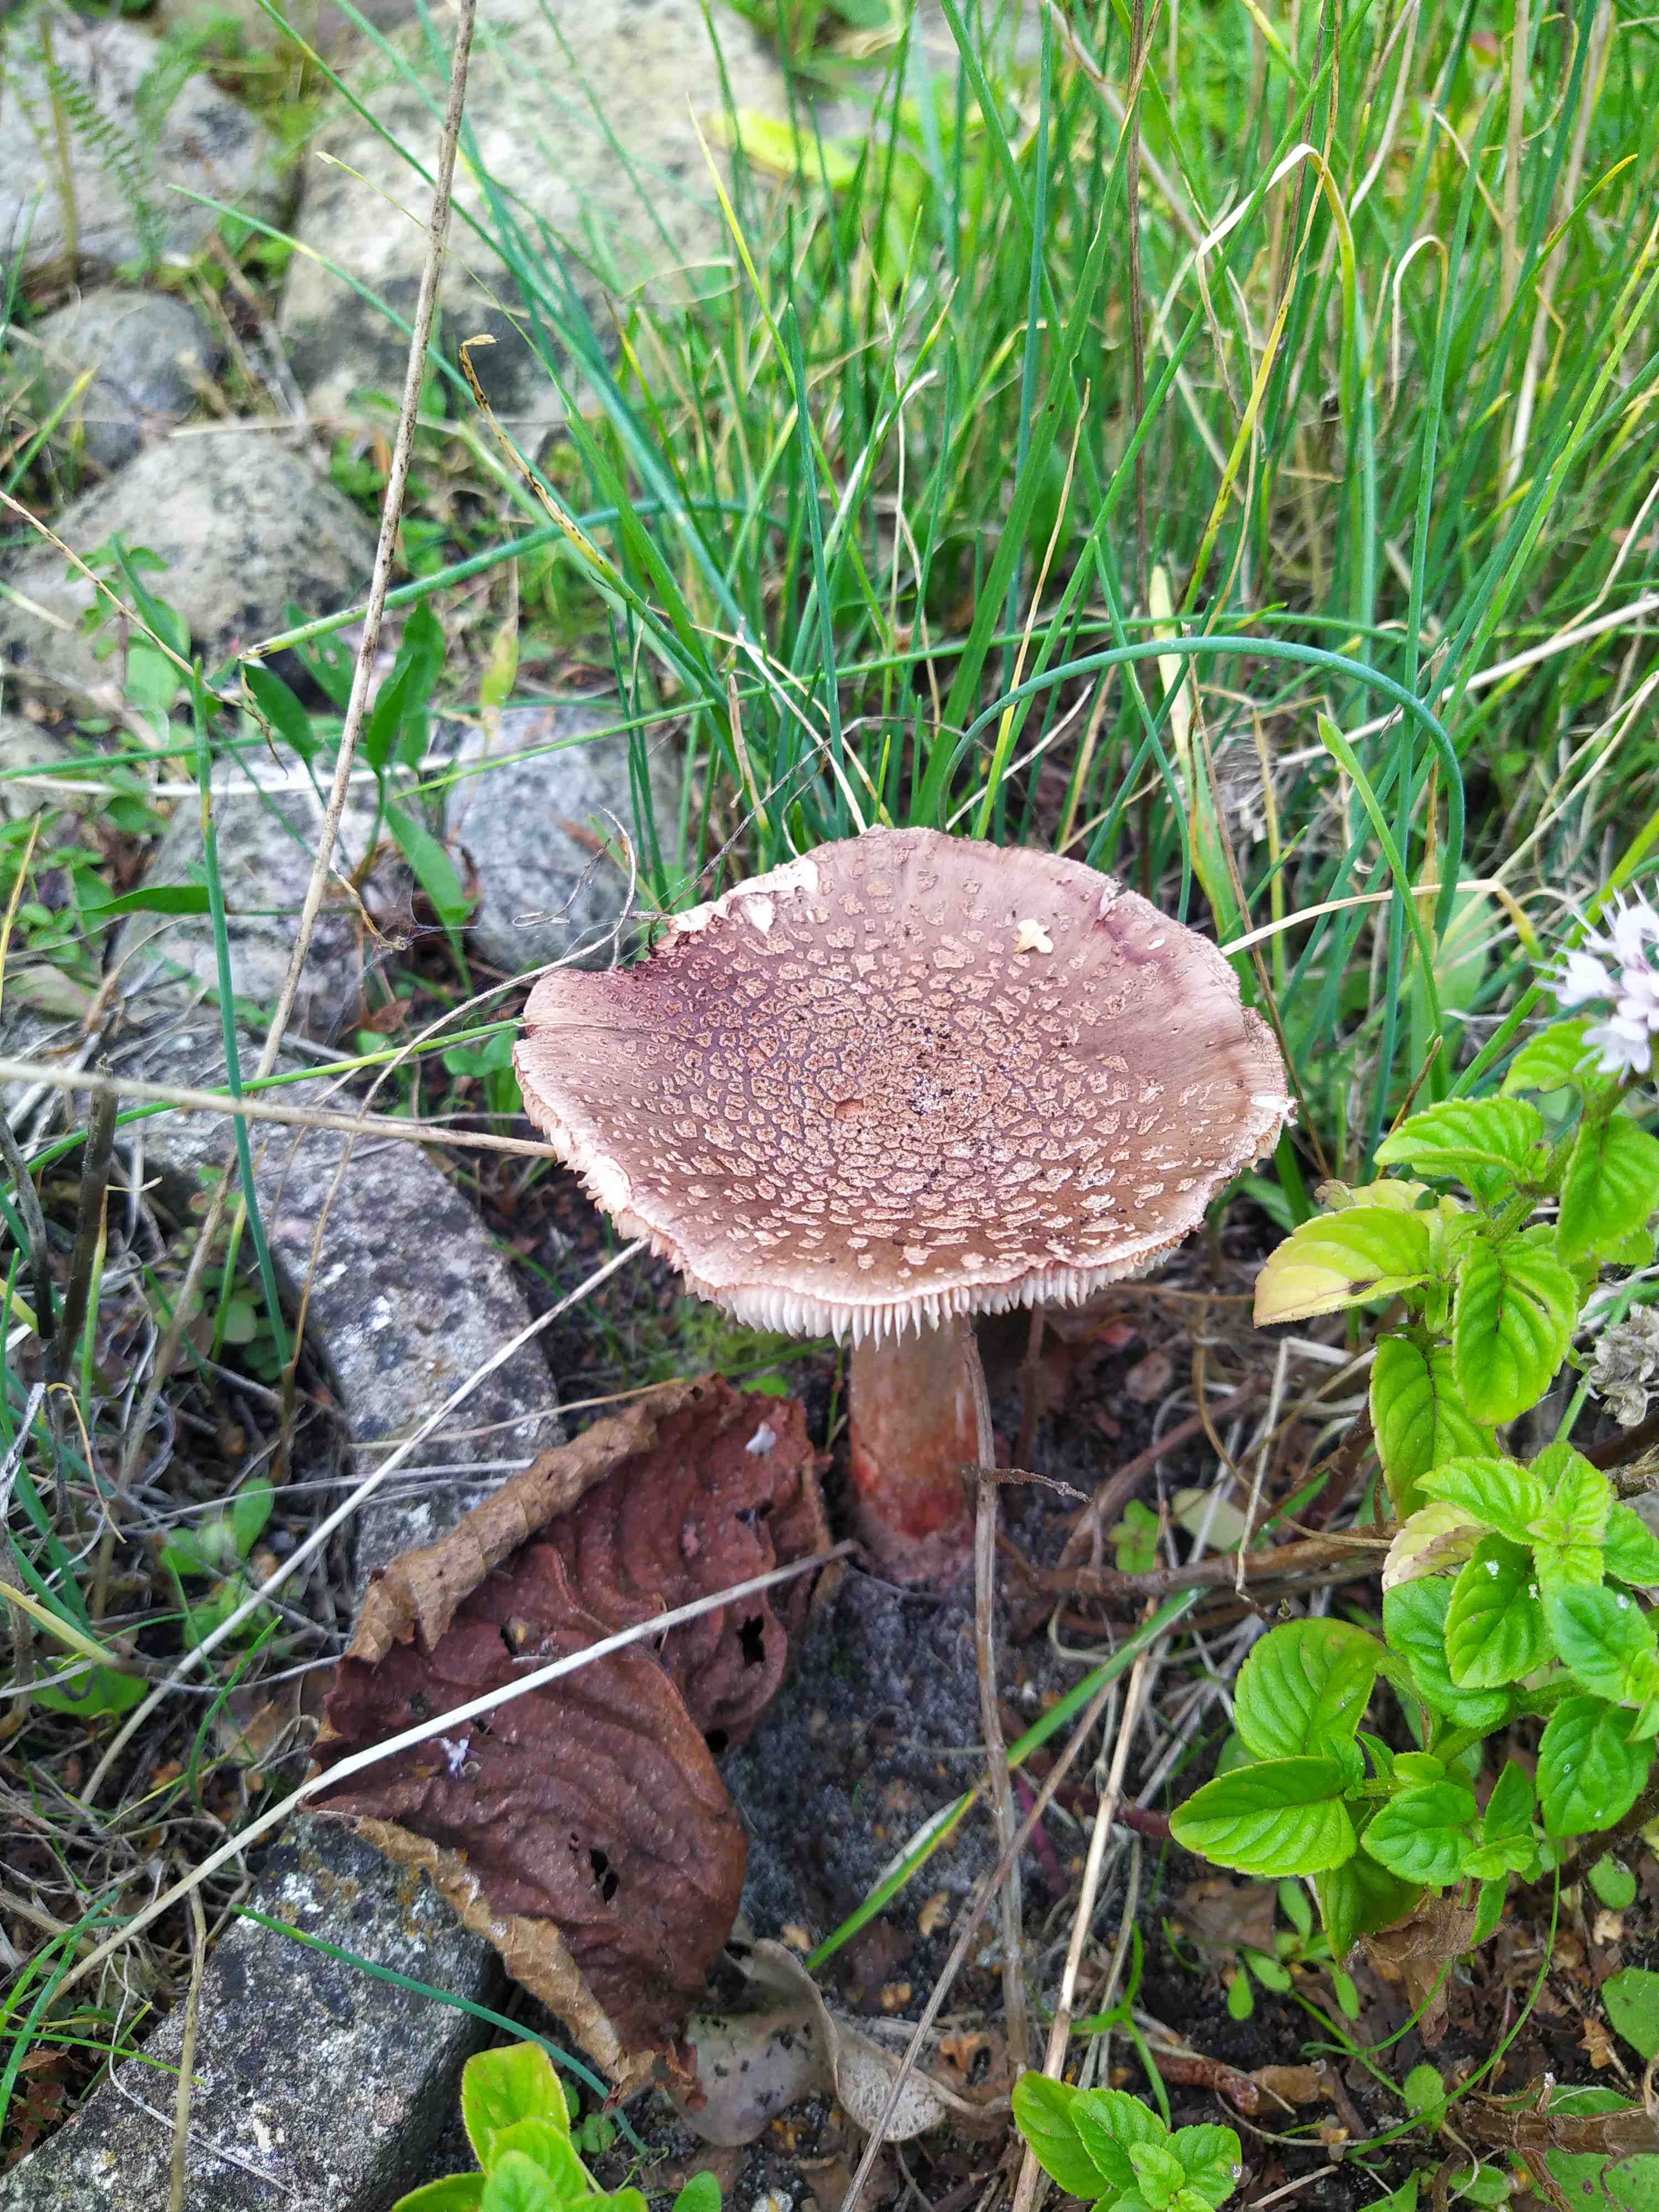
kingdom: Fungi
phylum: Basidiomycota
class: Agaricomycetes
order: Agaricales
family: Amanitaceae
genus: Amanita
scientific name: Amanita rubescens
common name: rødmende fluesvamp
